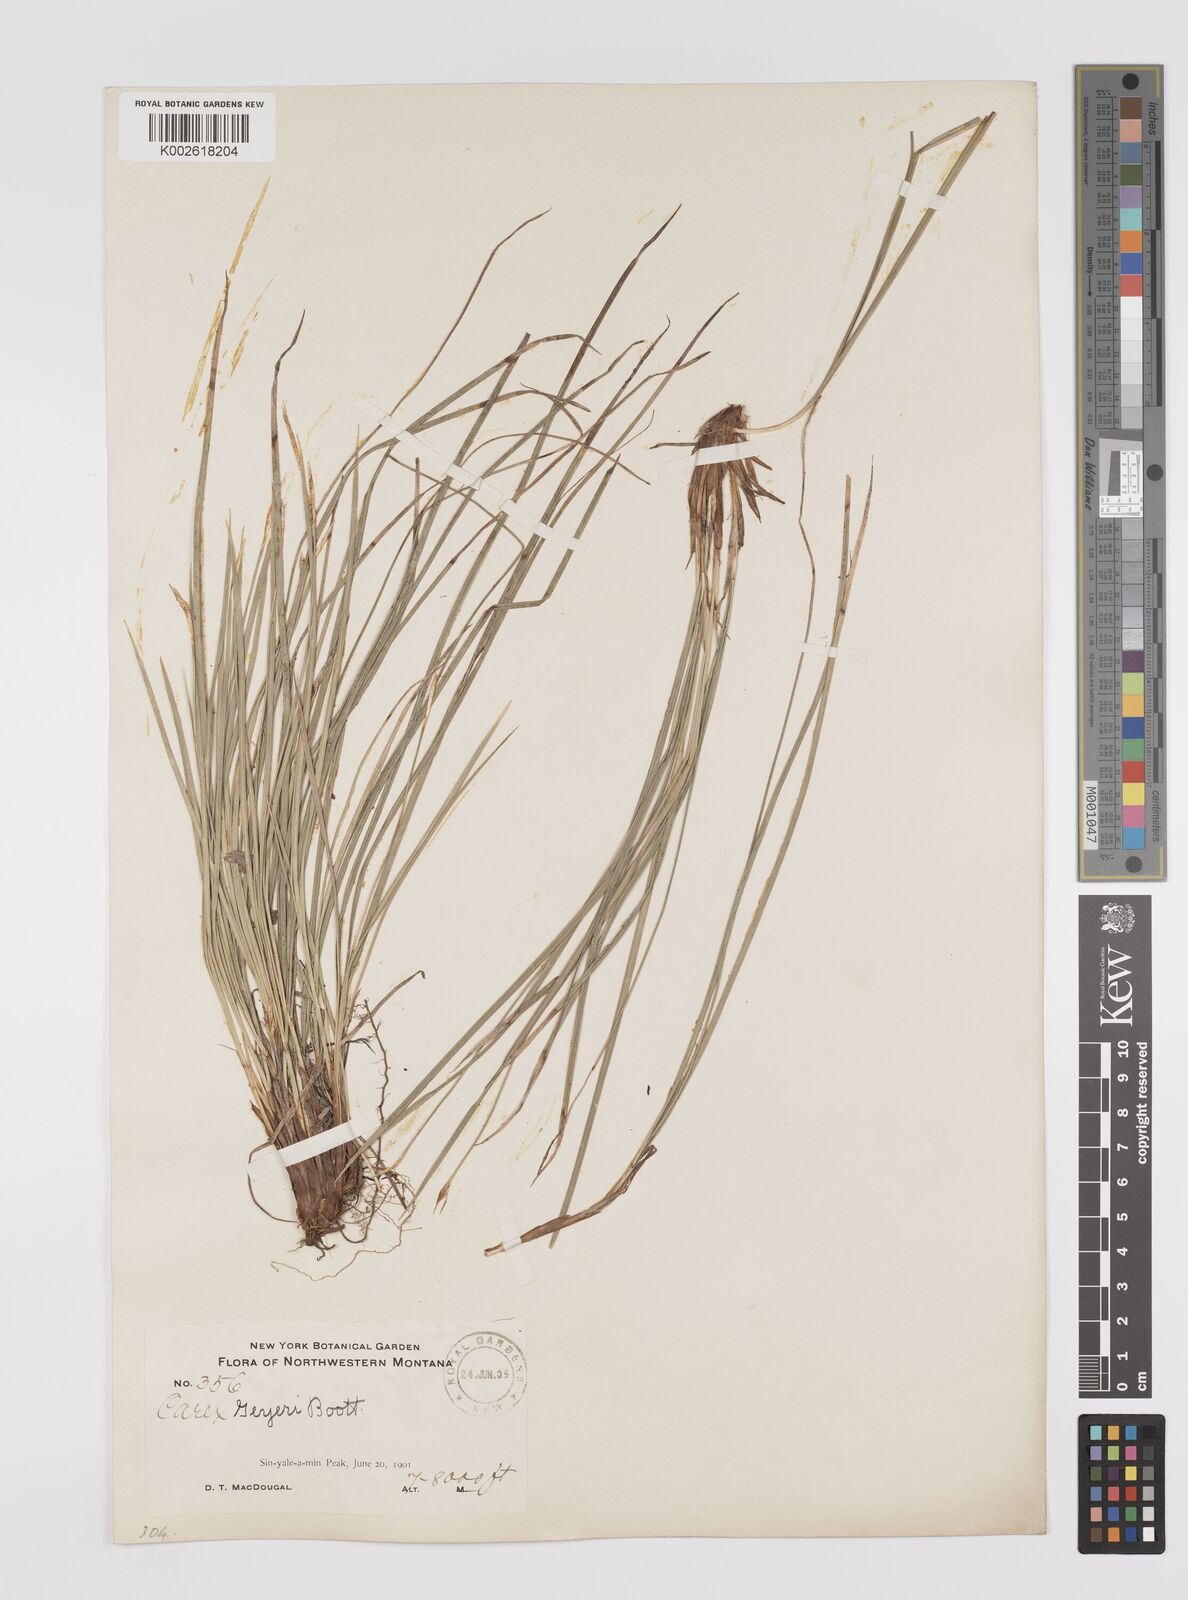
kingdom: Plantae
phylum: Tracheophyta
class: Liliopsida
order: Poales
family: Cyperaceae
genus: Carex
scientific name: Carex geyeri
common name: Elk sedge
